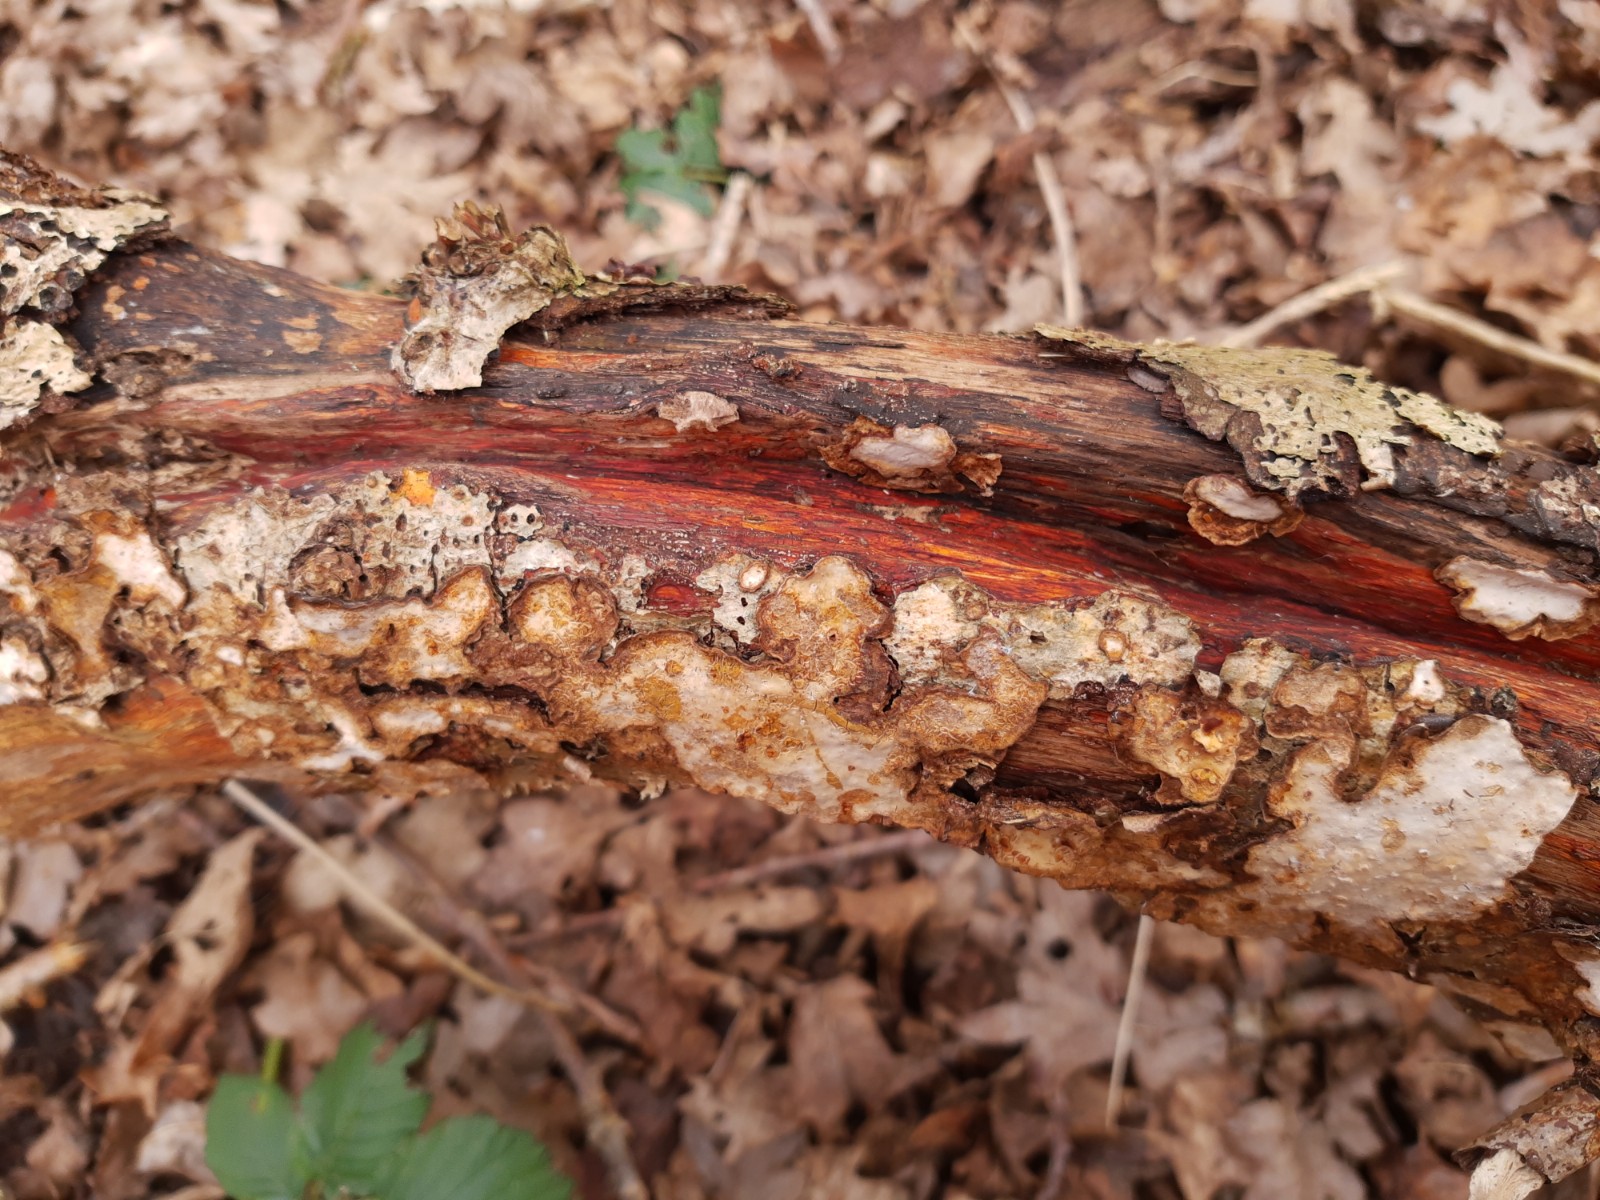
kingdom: Fungi
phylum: Basidiomycota
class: Agaricomycetes
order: Russulales
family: Stereaceae
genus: Stereum
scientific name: Stereum rugosum
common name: rynket lædersvamp
